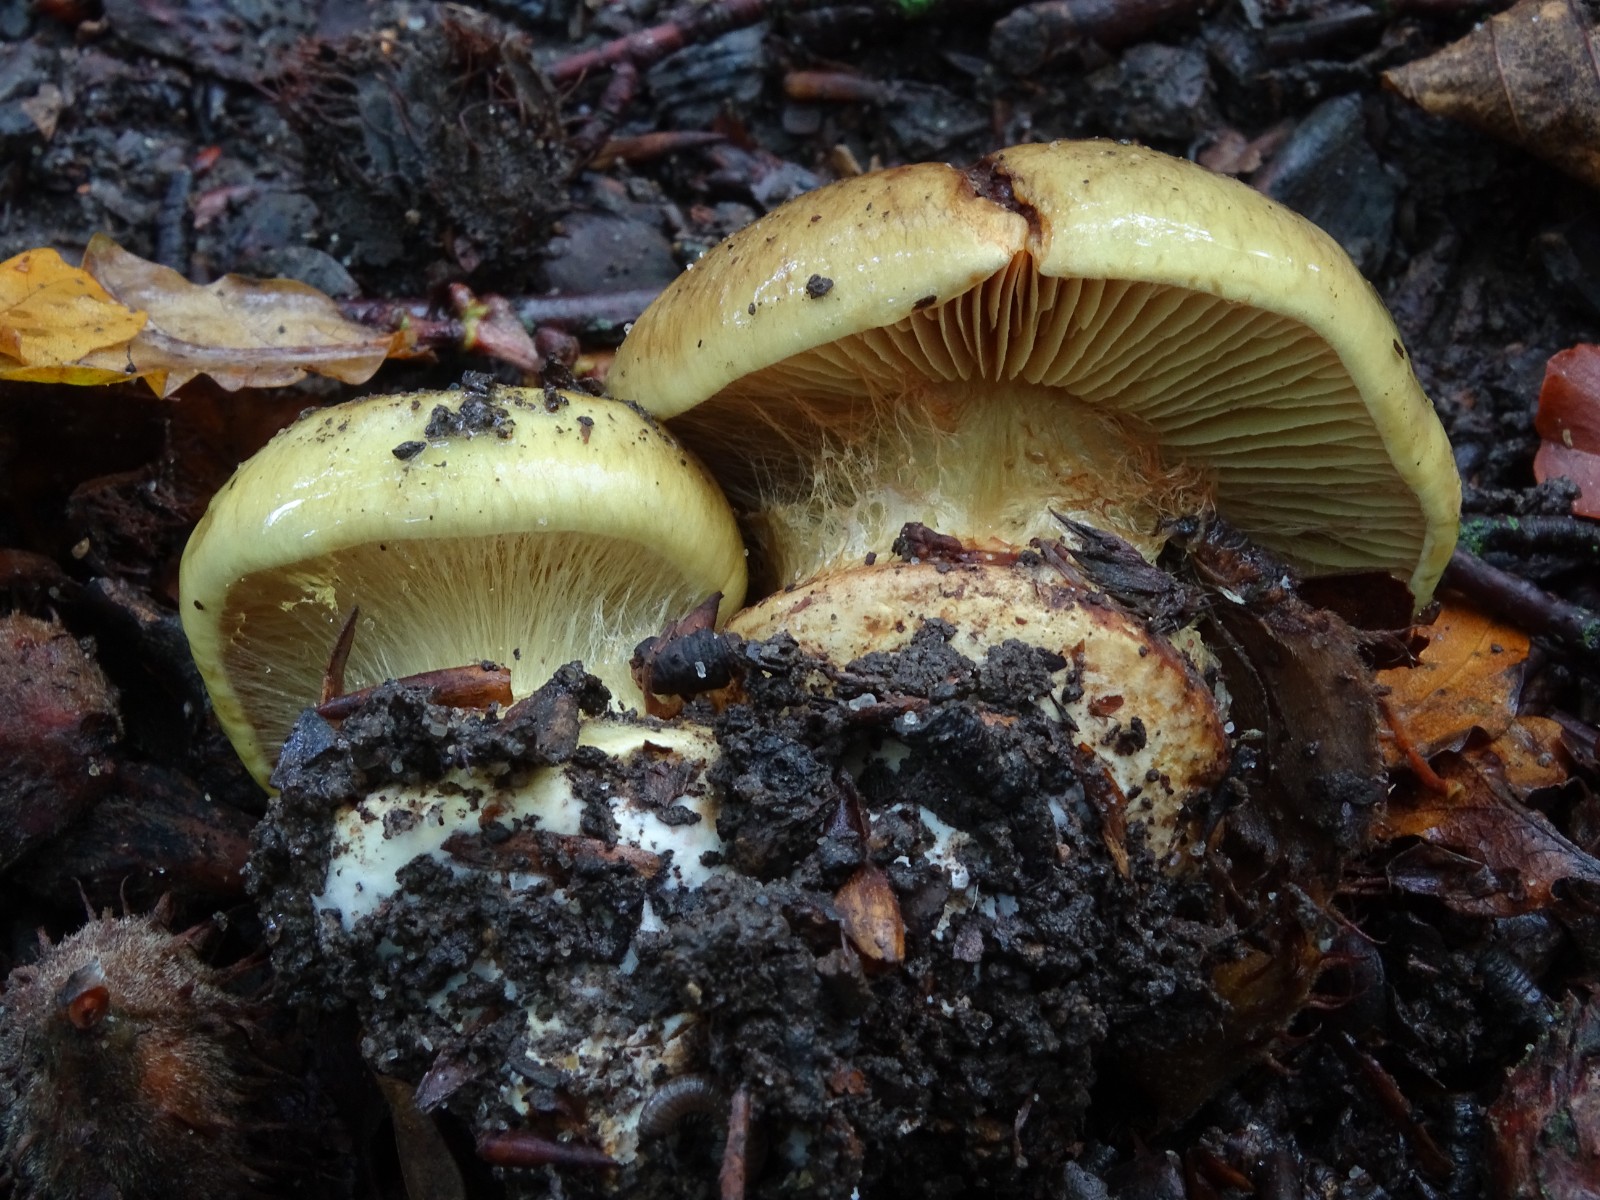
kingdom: Fungi
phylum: Basidiomycota
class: Agaricomycetes
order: Agaricales
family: Cortinariaceae
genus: Calonarius
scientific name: Calonarius
